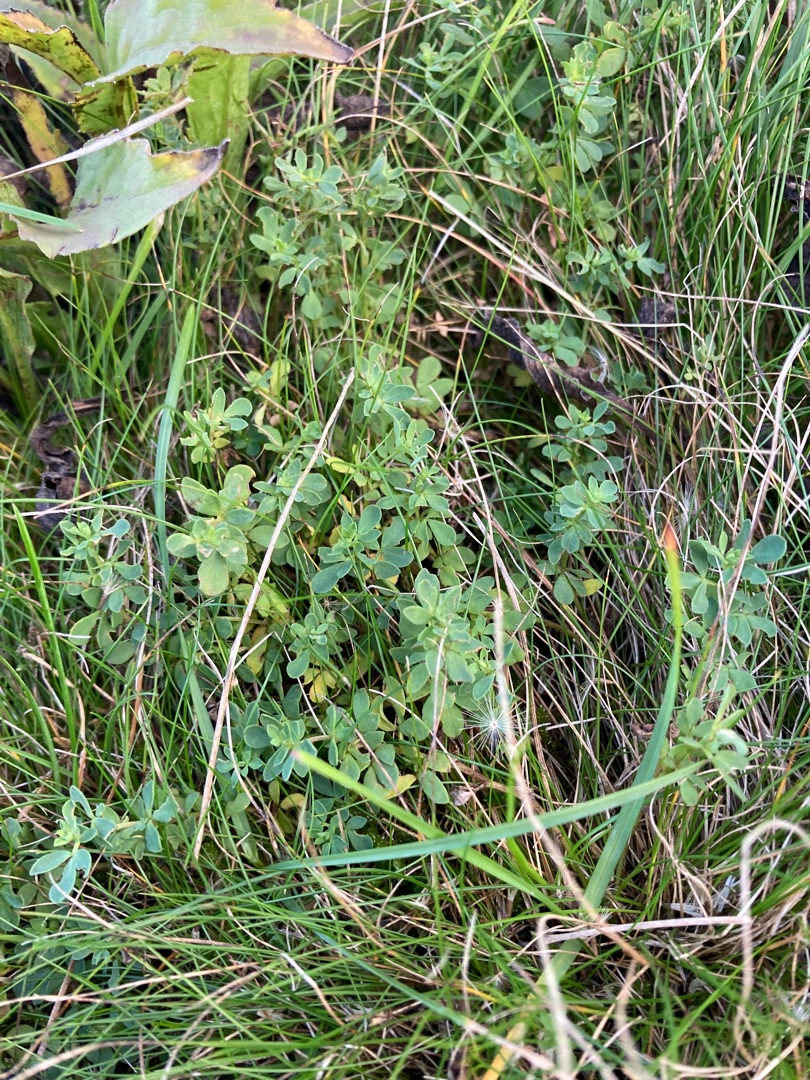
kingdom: Plantae
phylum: Tracheophyta
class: Magnoliopsida
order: Fabales
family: Fabaceae
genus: Lotus
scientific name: Lotus
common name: Kællingetandslægten
